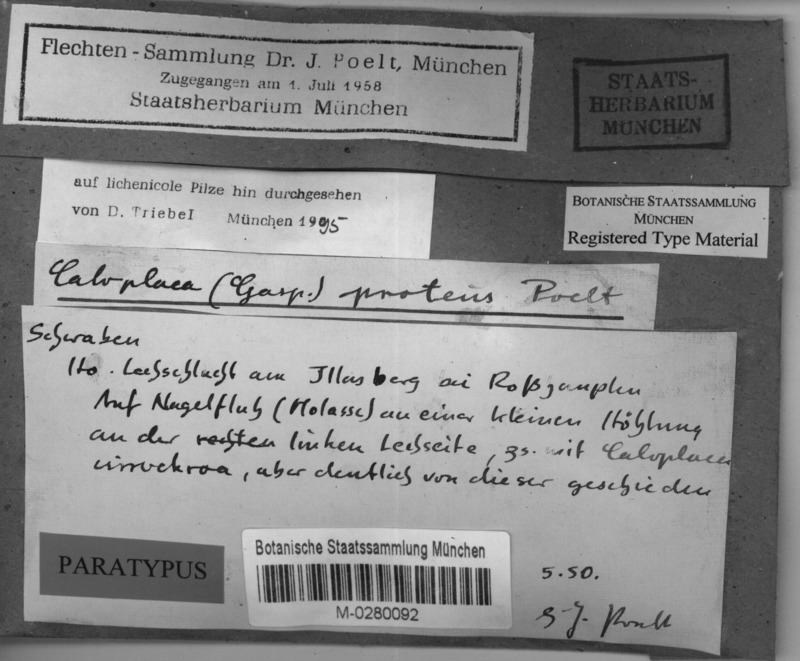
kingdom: Fungi
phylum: Ascomycota
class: Lecanoromycetes
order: Teloschistales
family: Teloschistaceae
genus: Leproplaca
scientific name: Leproplaca cirrochroa
